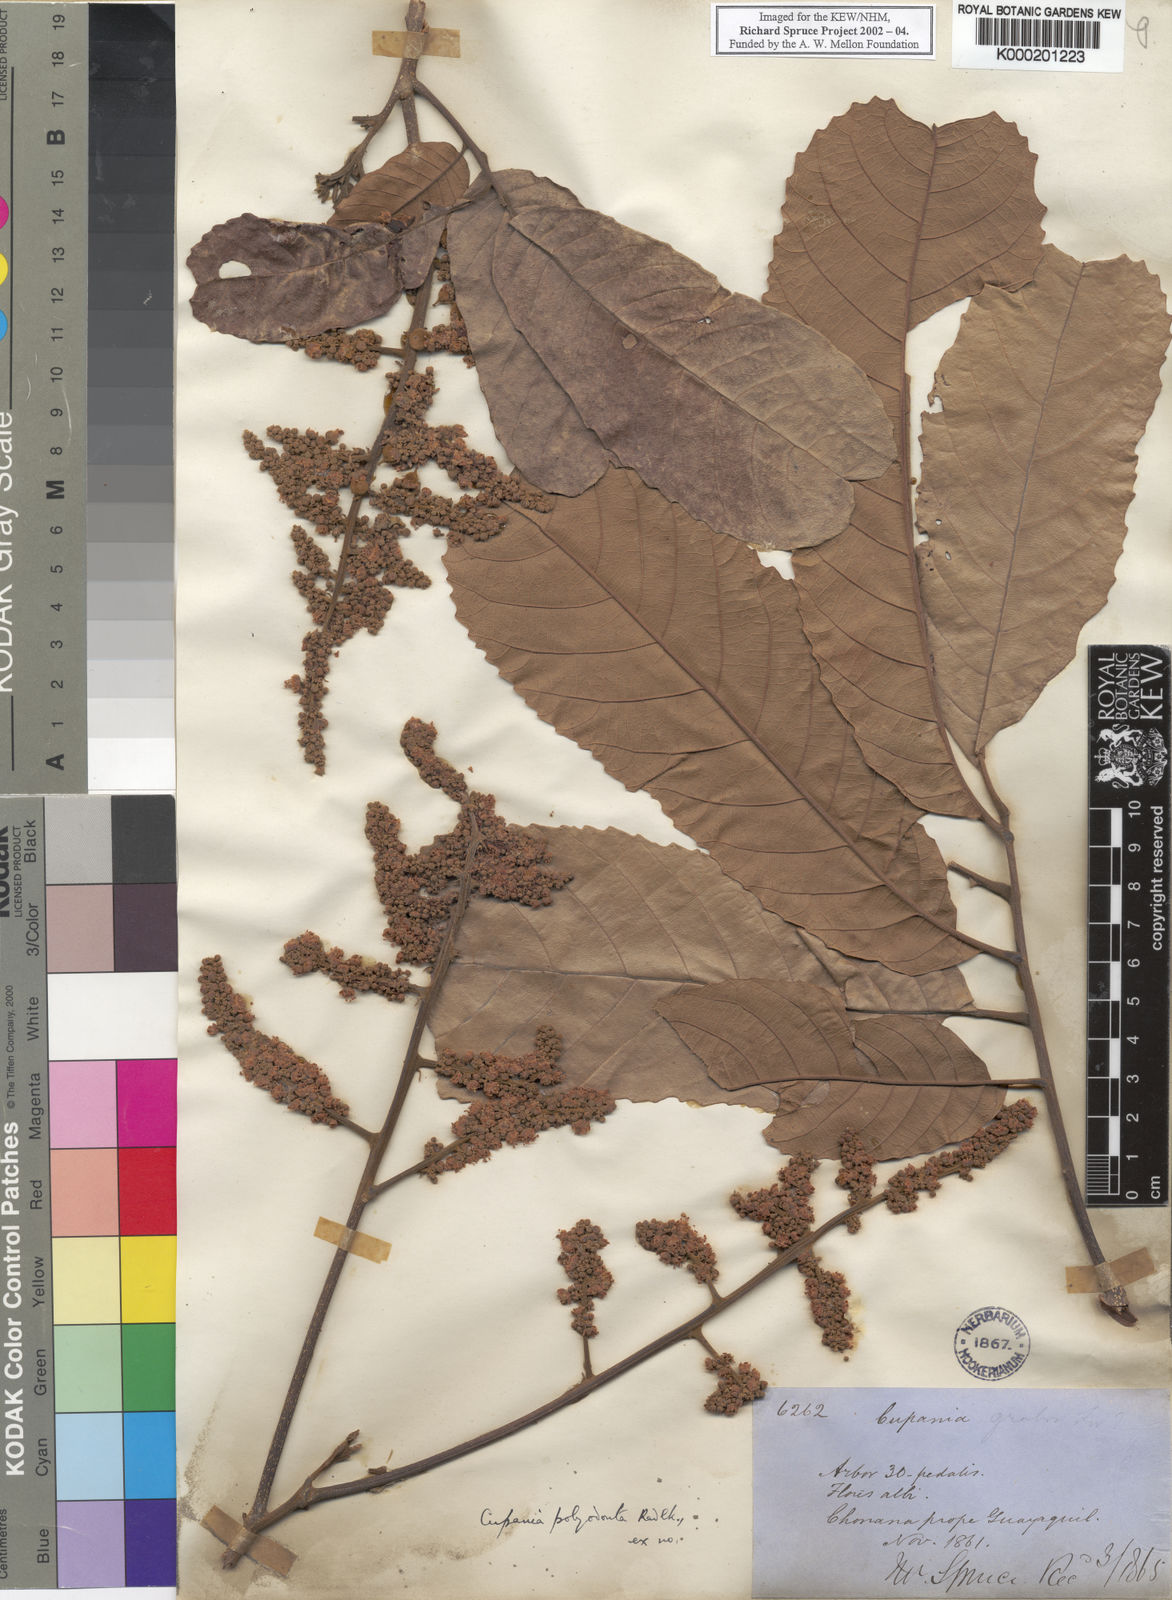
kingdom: Plantae
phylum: Tracheophyta
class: Magnoliopsida
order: Sapindales
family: Sapindaceae
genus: Cupania
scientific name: Cupania polyodonta
